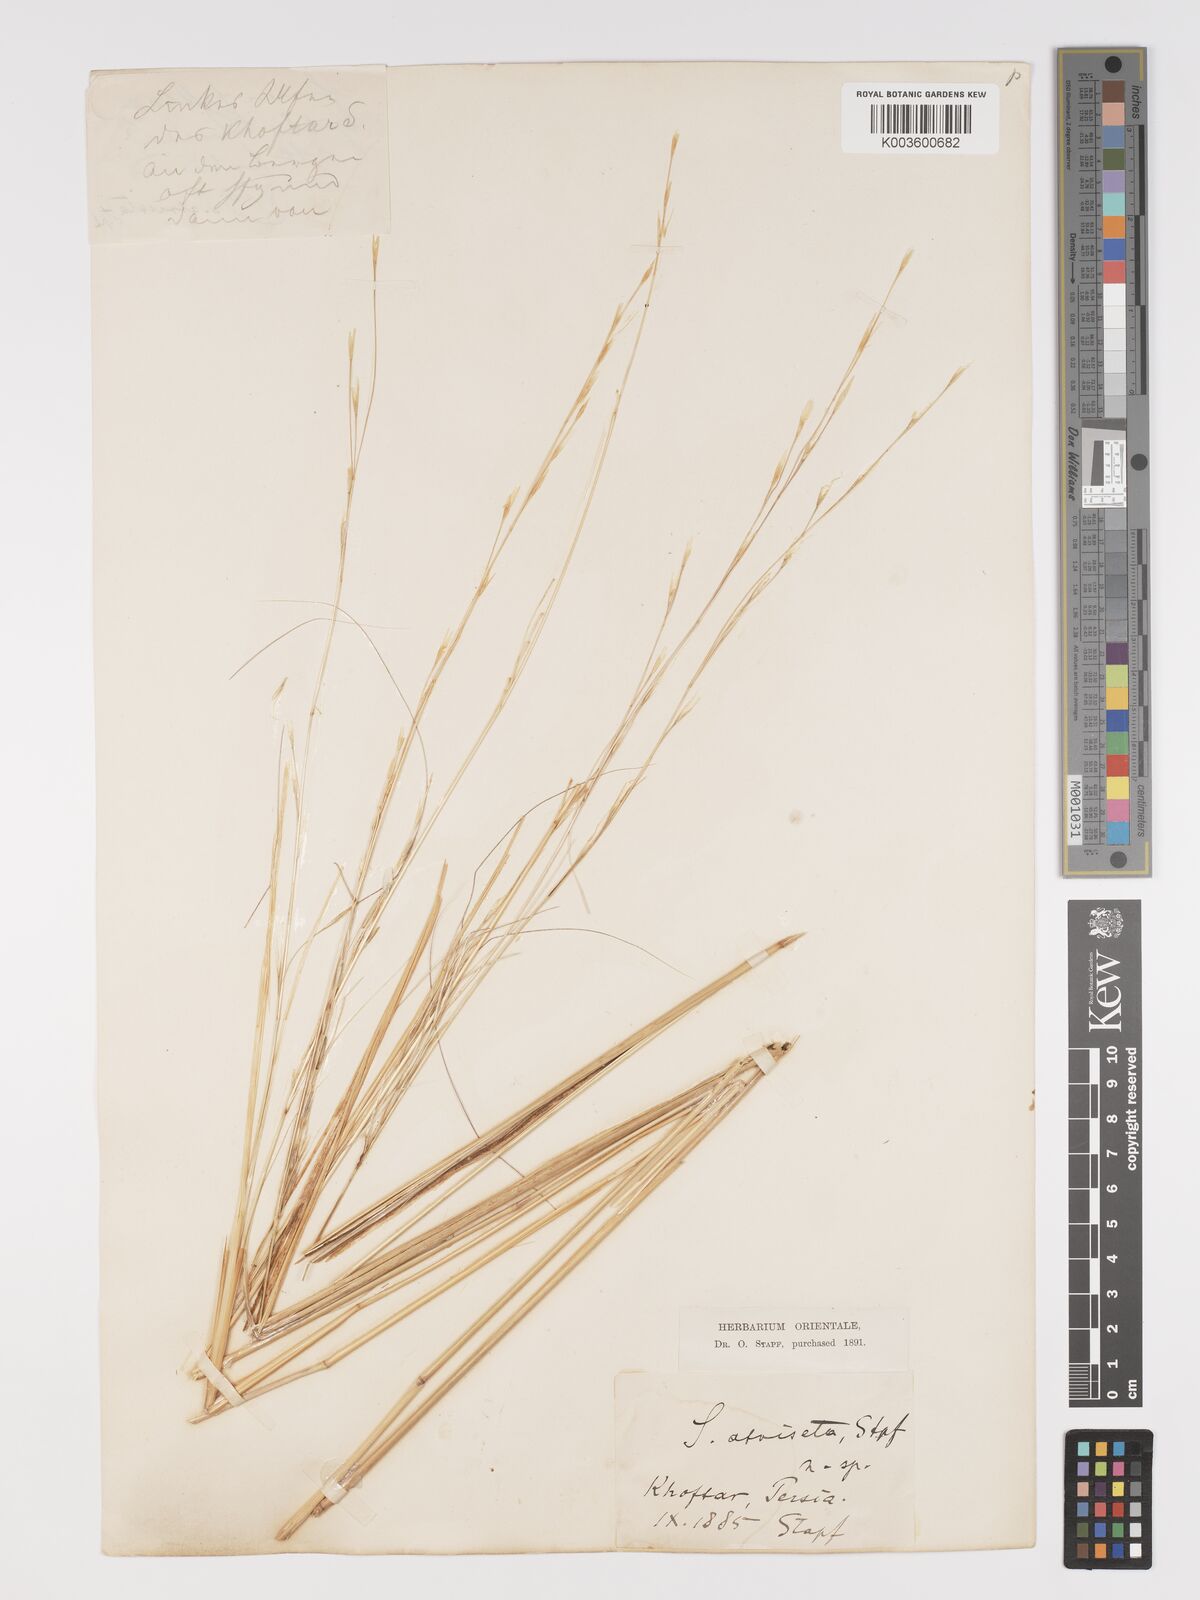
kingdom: Plantae
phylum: Tracheophyta
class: Liliopsida
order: Poales
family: Poaceae
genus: Stipa
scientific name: Stipa hohenackeriana
